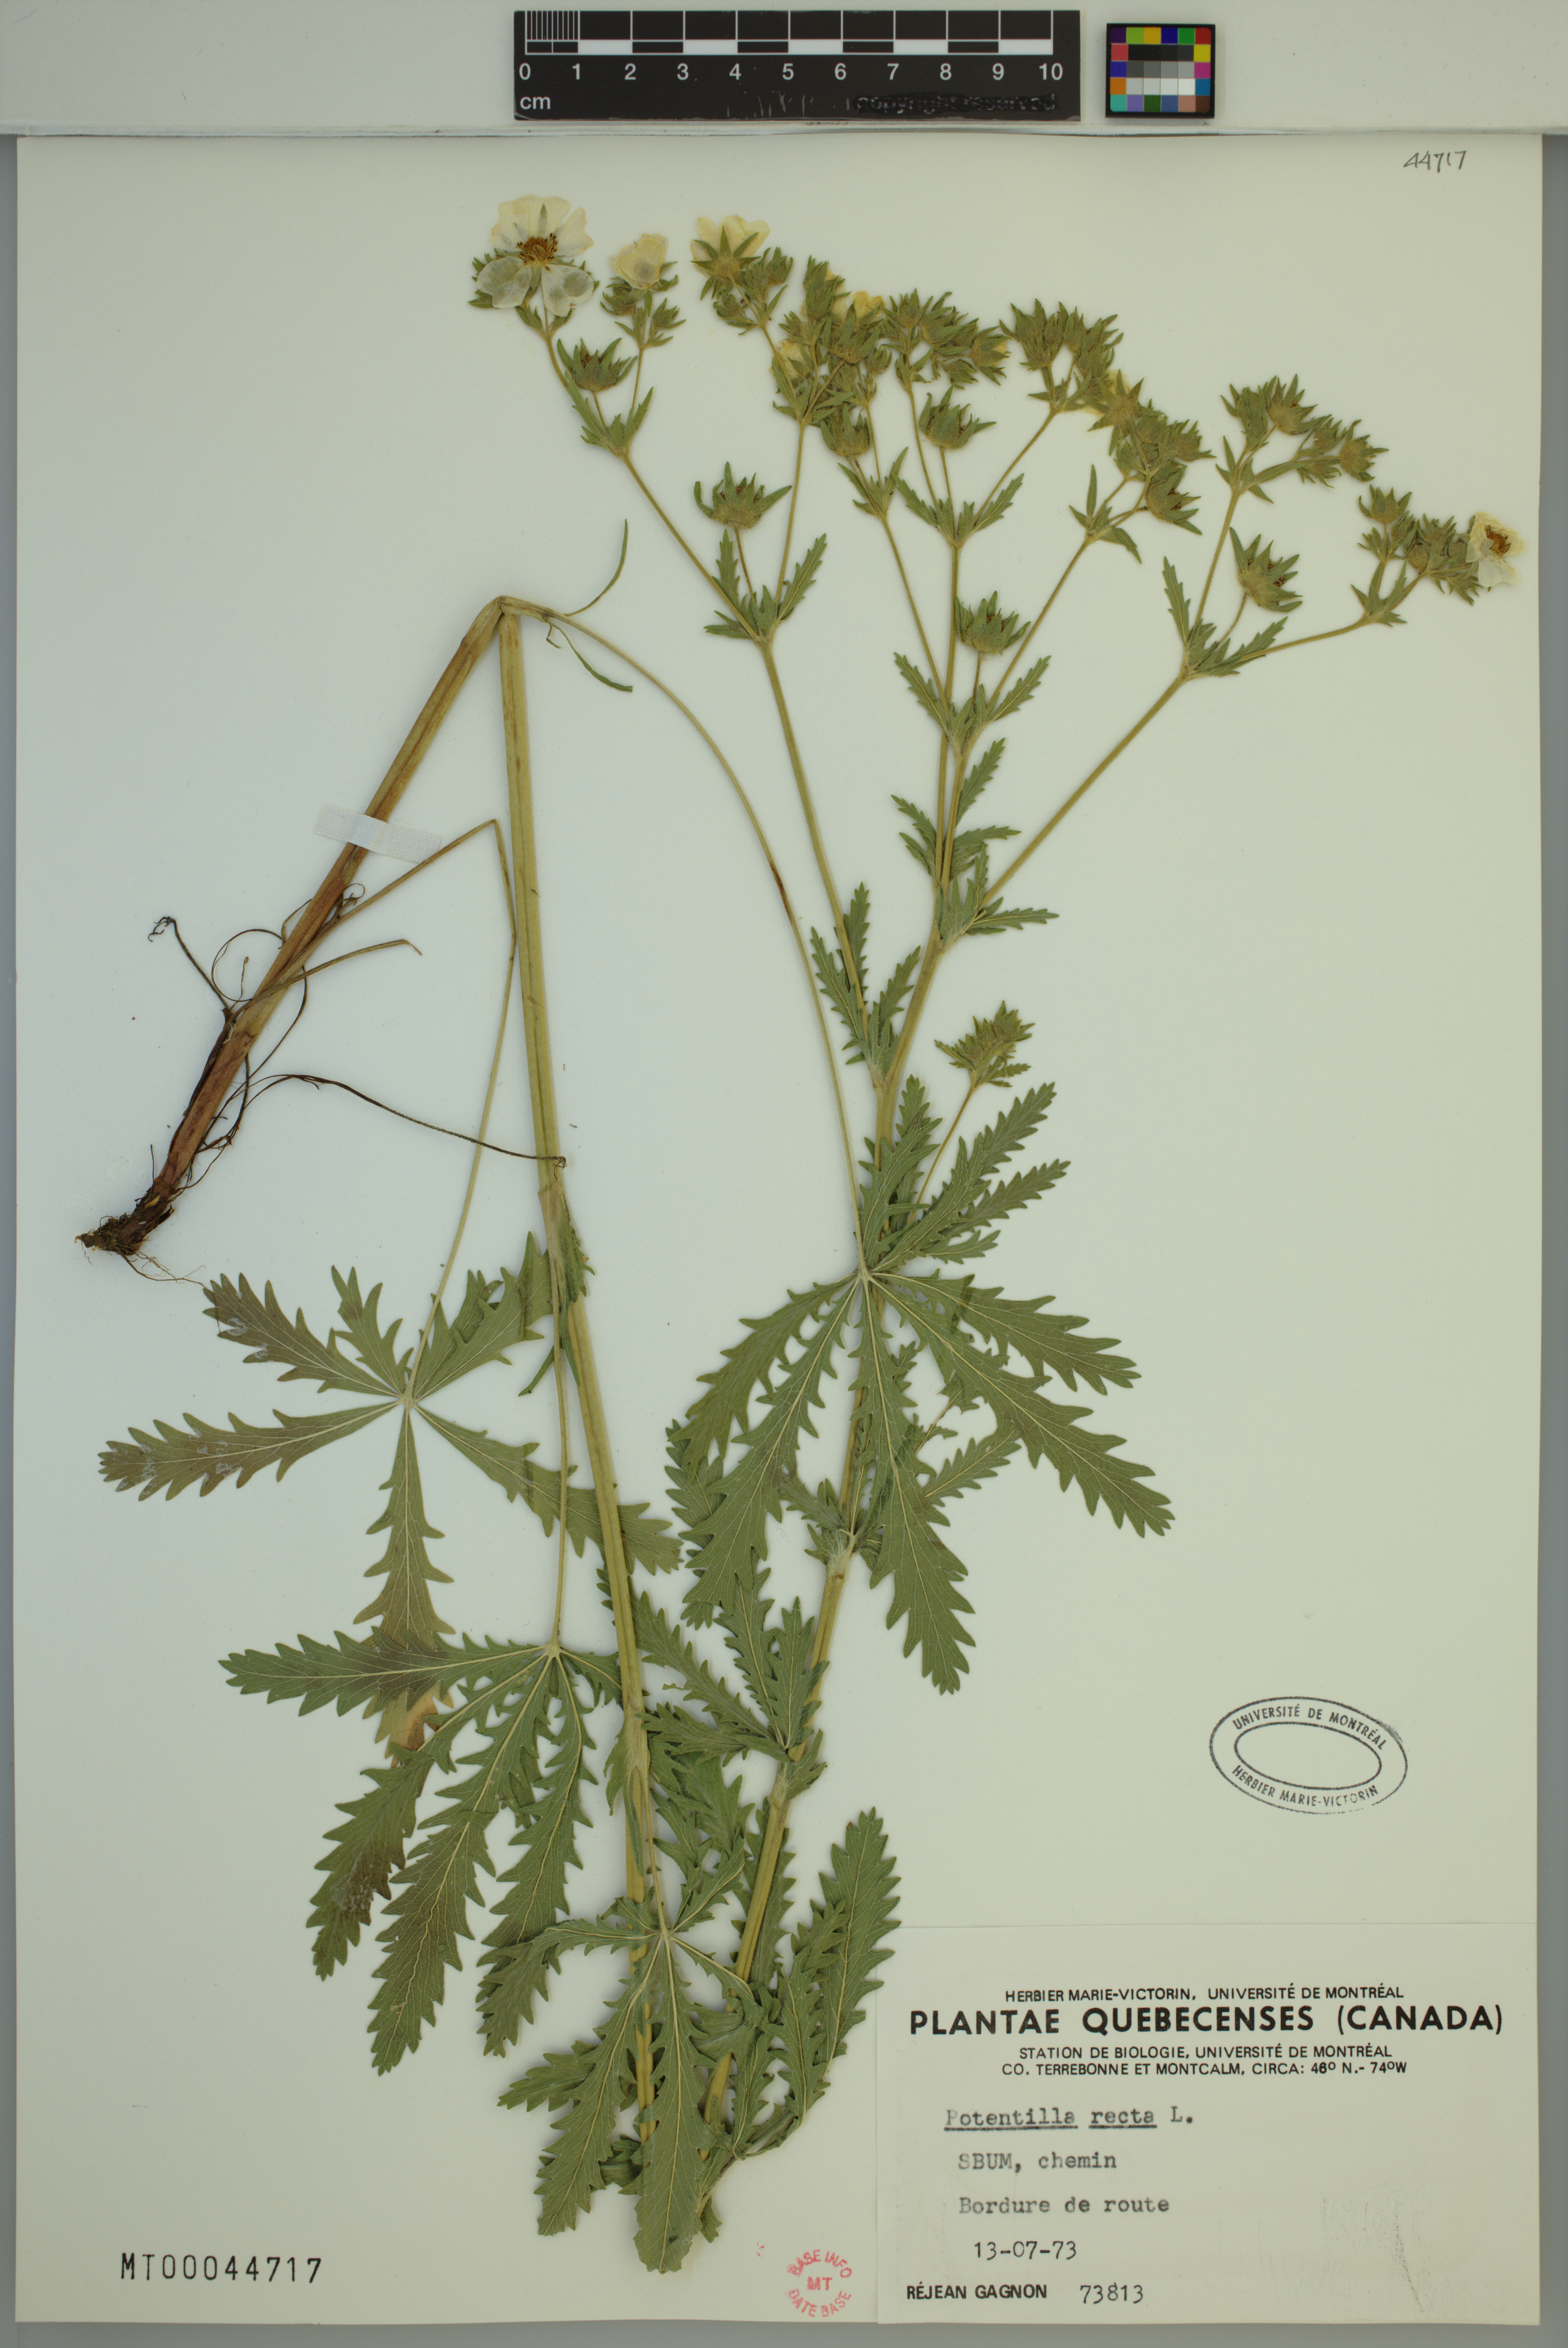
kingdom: Plantae
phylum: Tracheophyta
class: Magnoliopsida
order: Rosales
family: Rosaceae
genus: Potentilla
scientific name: Potentilla recta
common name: Sulphur cinquefoil
